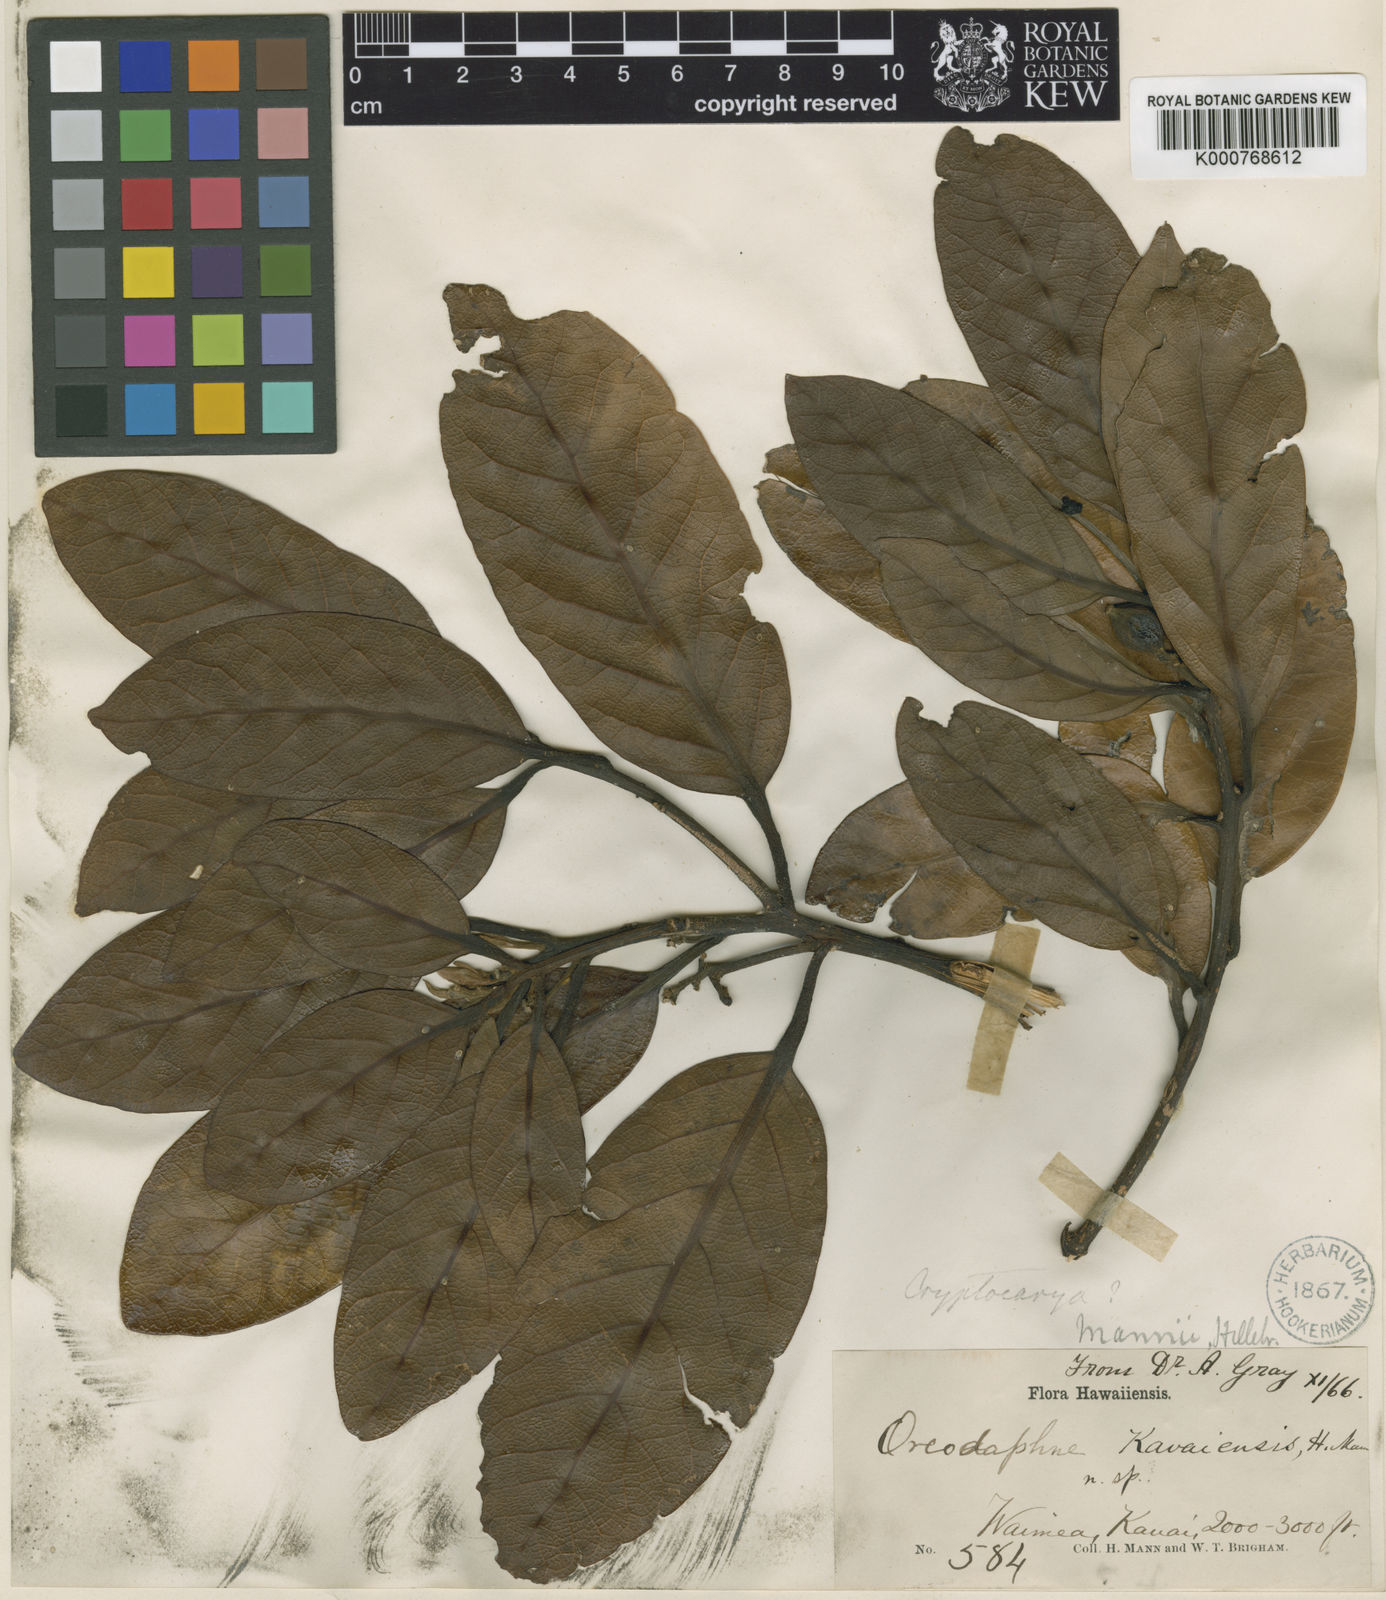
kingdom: Plantae
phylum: Tracheophyta
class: Magnoliopsida
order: Laurales
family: Lauraceae
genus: Cryptocarya
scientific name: Cryptocarya mannii
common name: Mann cryptocarya
